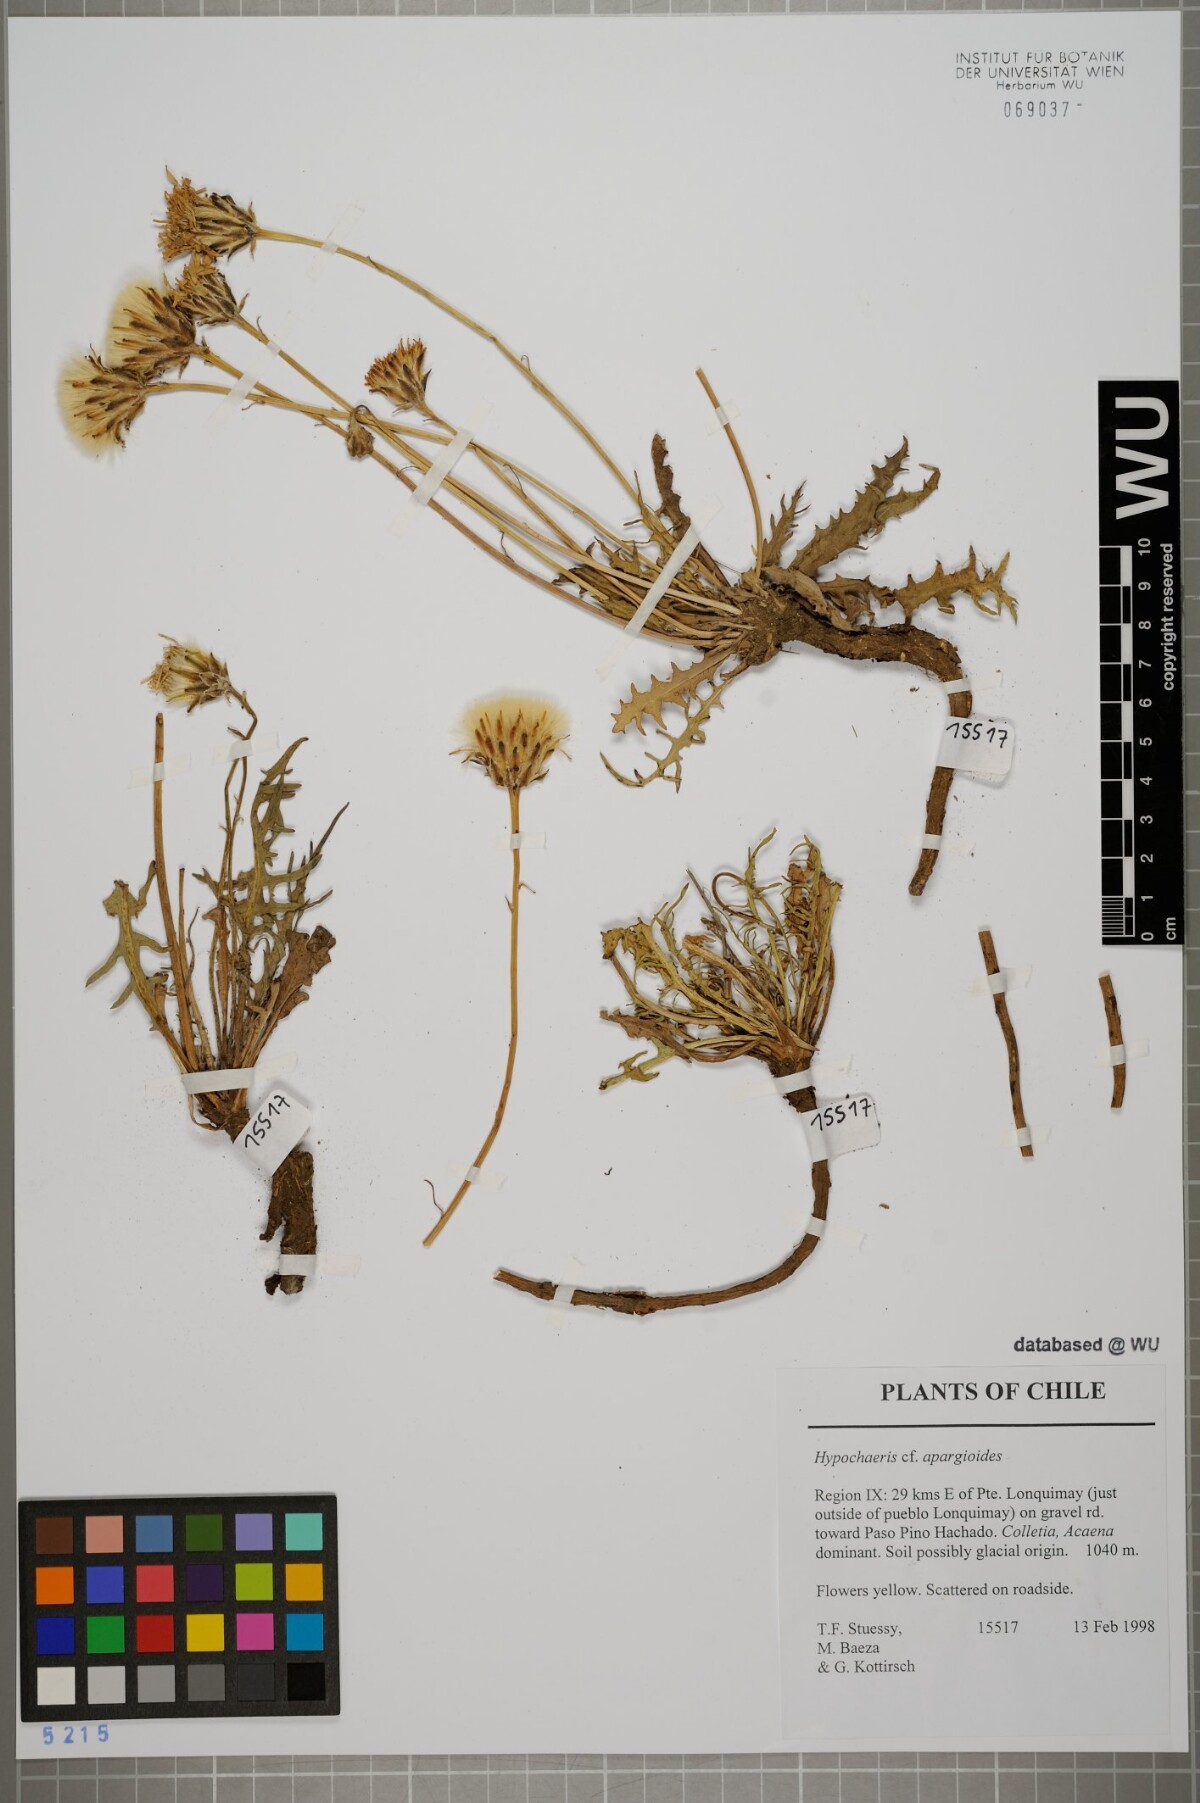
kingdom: Plantae
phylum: Tracheophyta
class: Magnoliopsida
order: Asterales
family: Asteraceae
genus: Hypochaeris
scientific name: Hypochaeris apargioides
